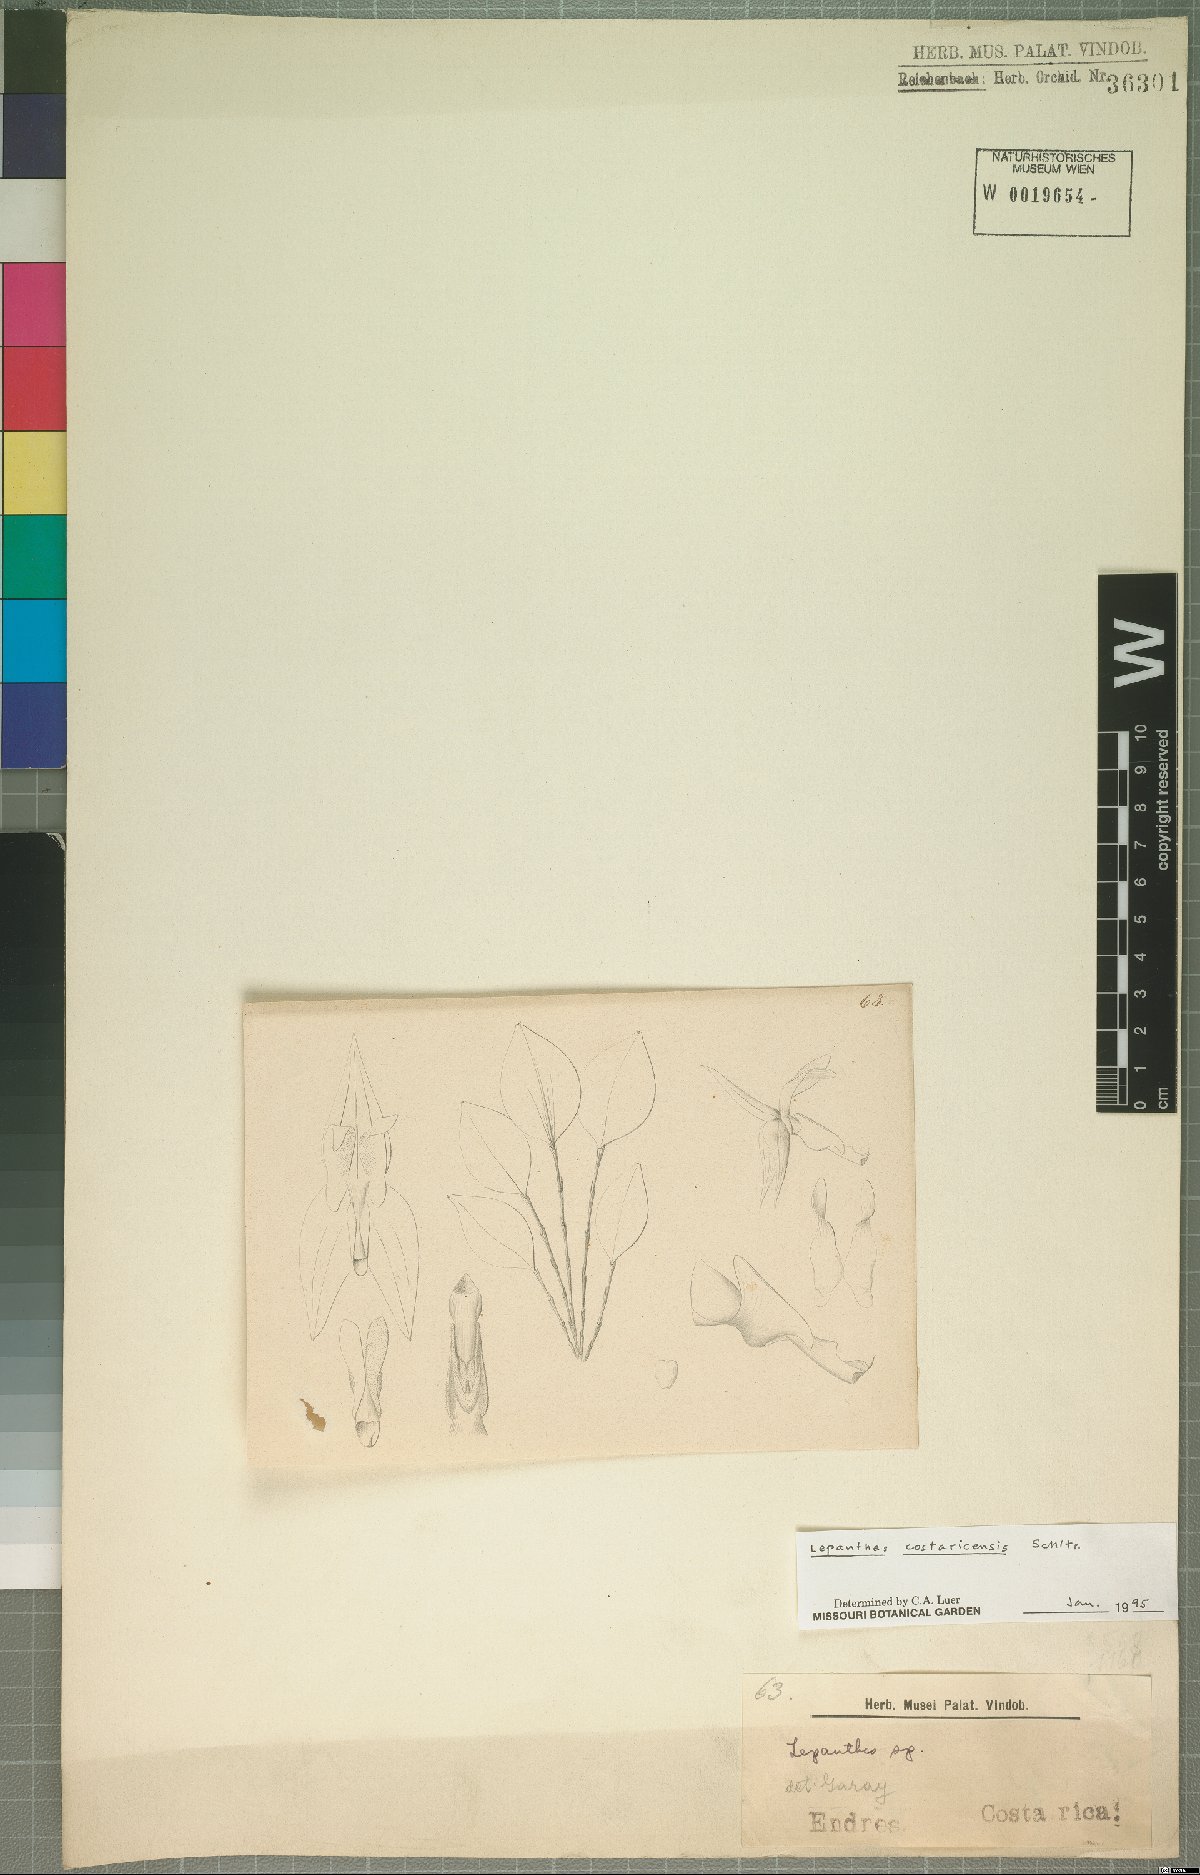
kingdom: Plantae
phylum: Tracheophyta
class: Liliopsida
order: Asparagales
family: Orchidaceae
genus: Lepanthes
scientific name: Lepanthes costaricensis
